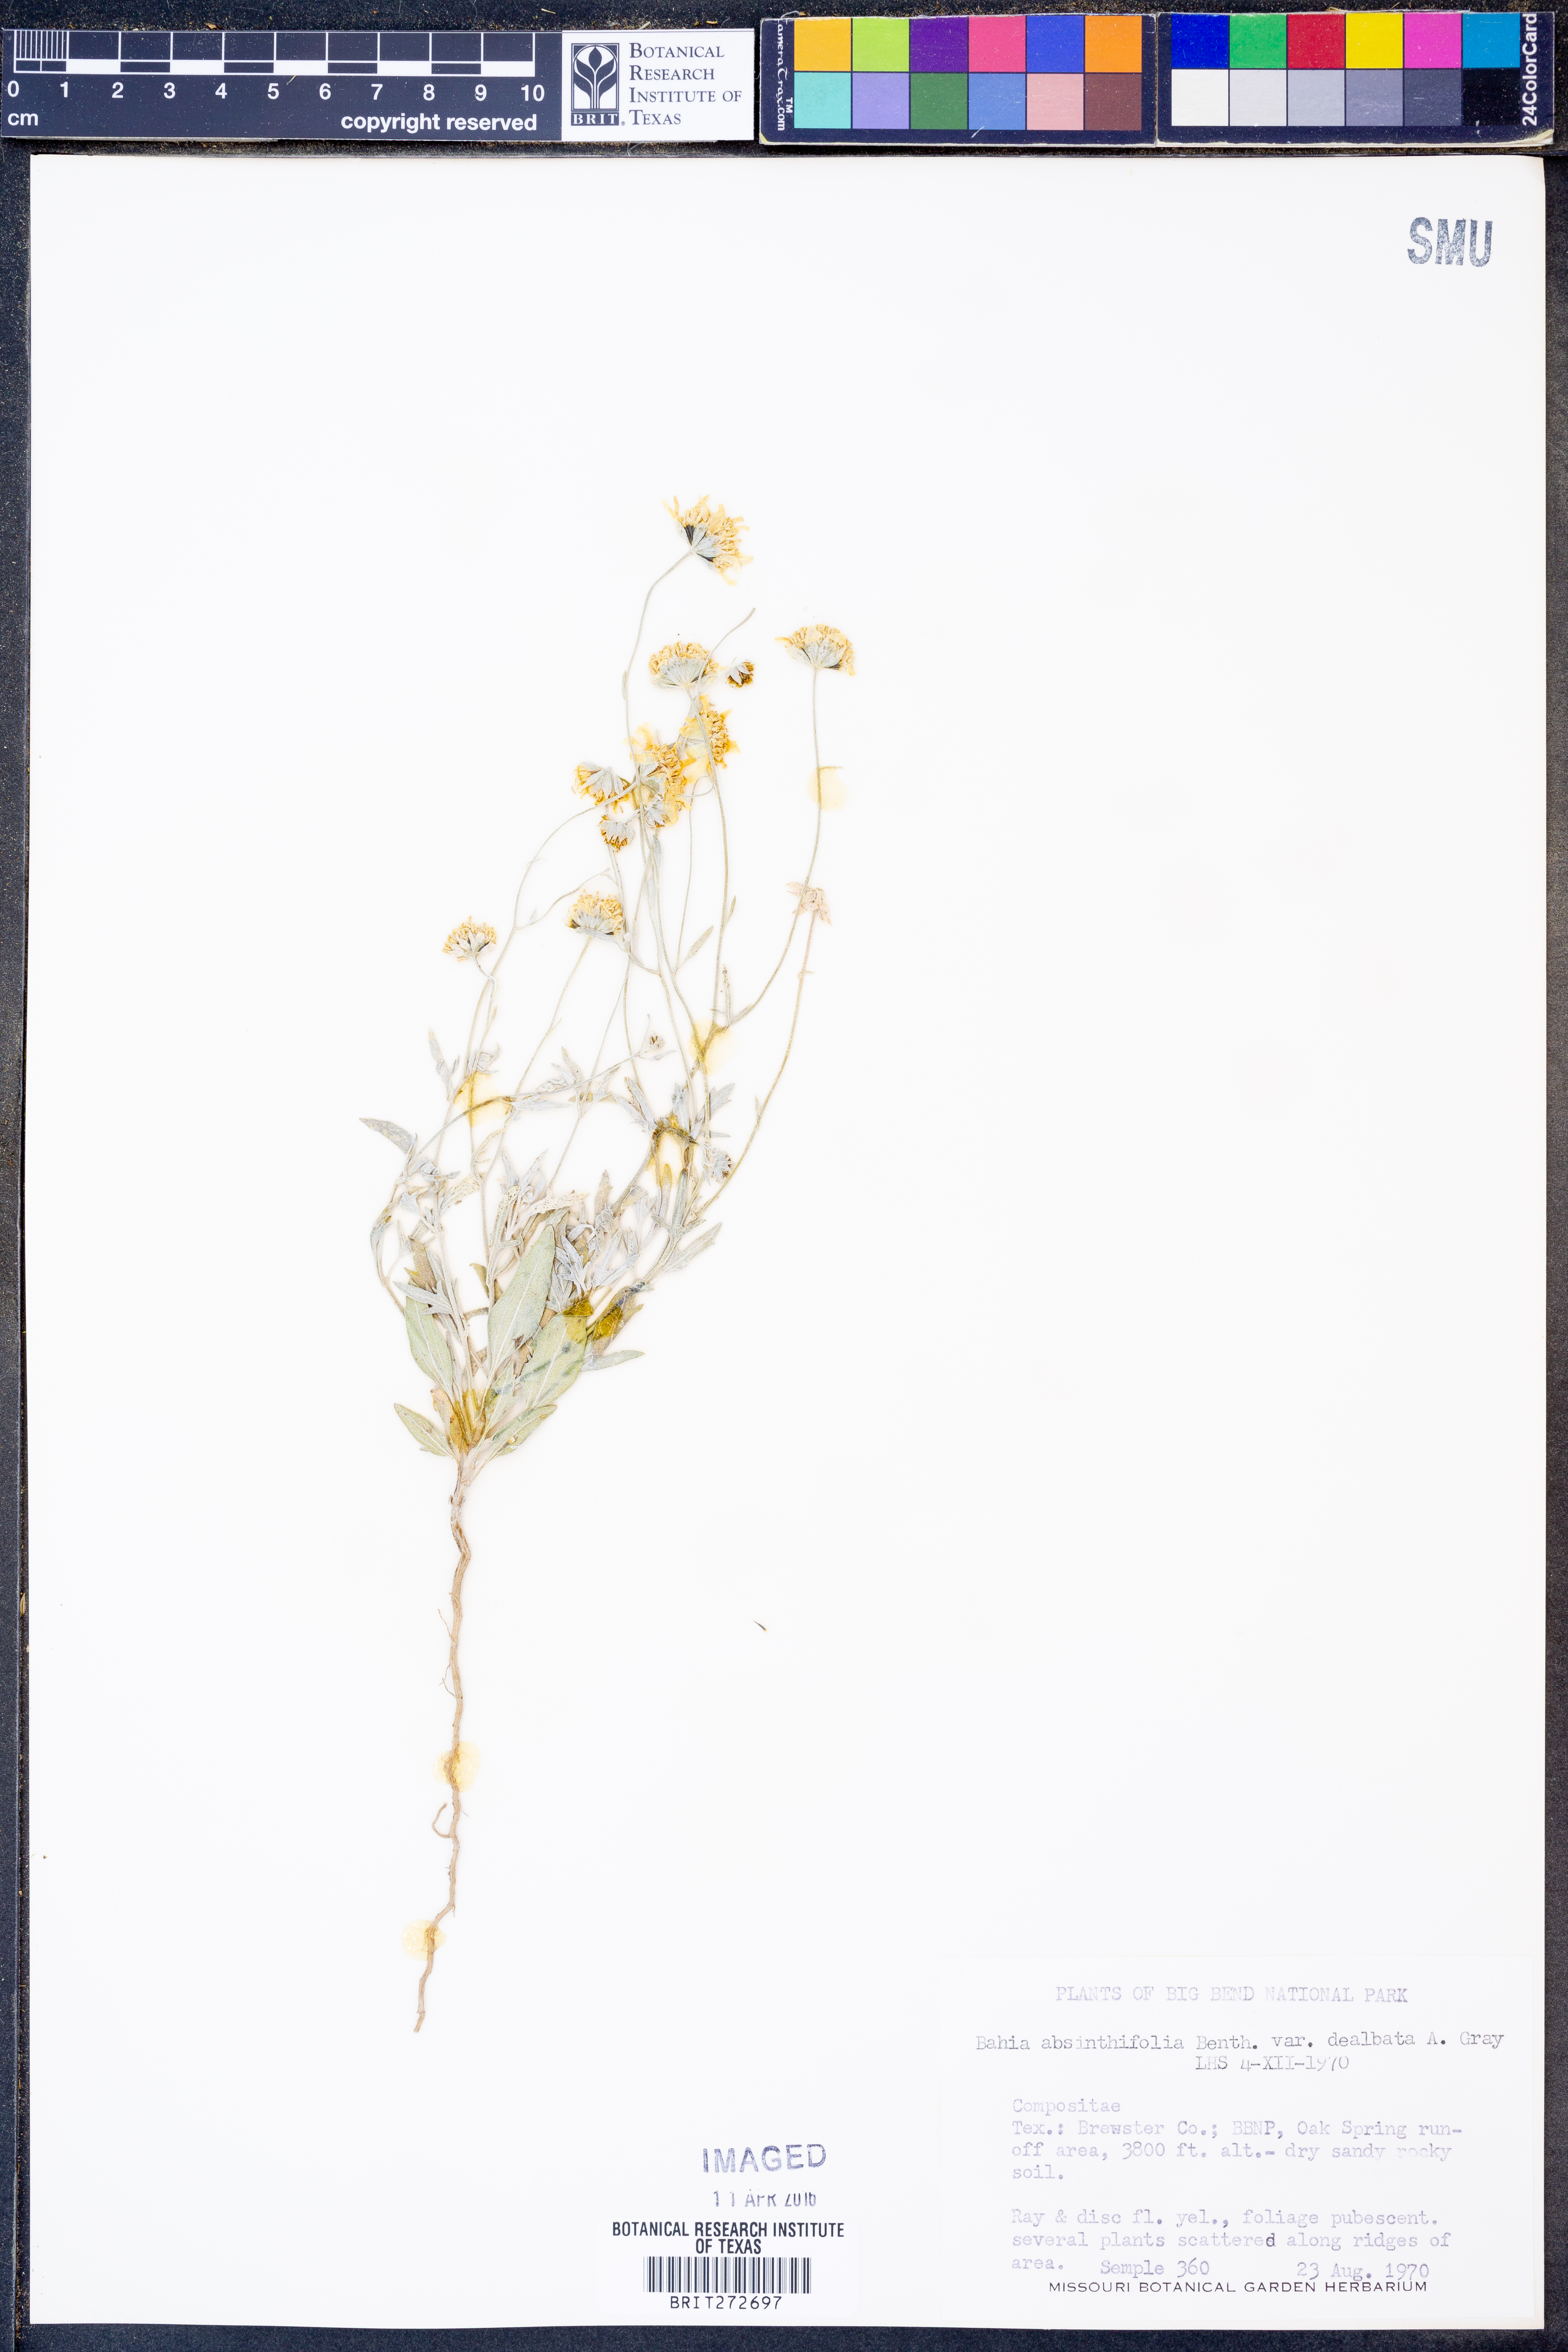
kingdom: Plantae
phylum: Tracheophyta
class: Magnoliopsida
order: Asterales
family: Asteraceae
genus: Picradeniopsis
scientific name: Picradeniopsis absinthifolia
